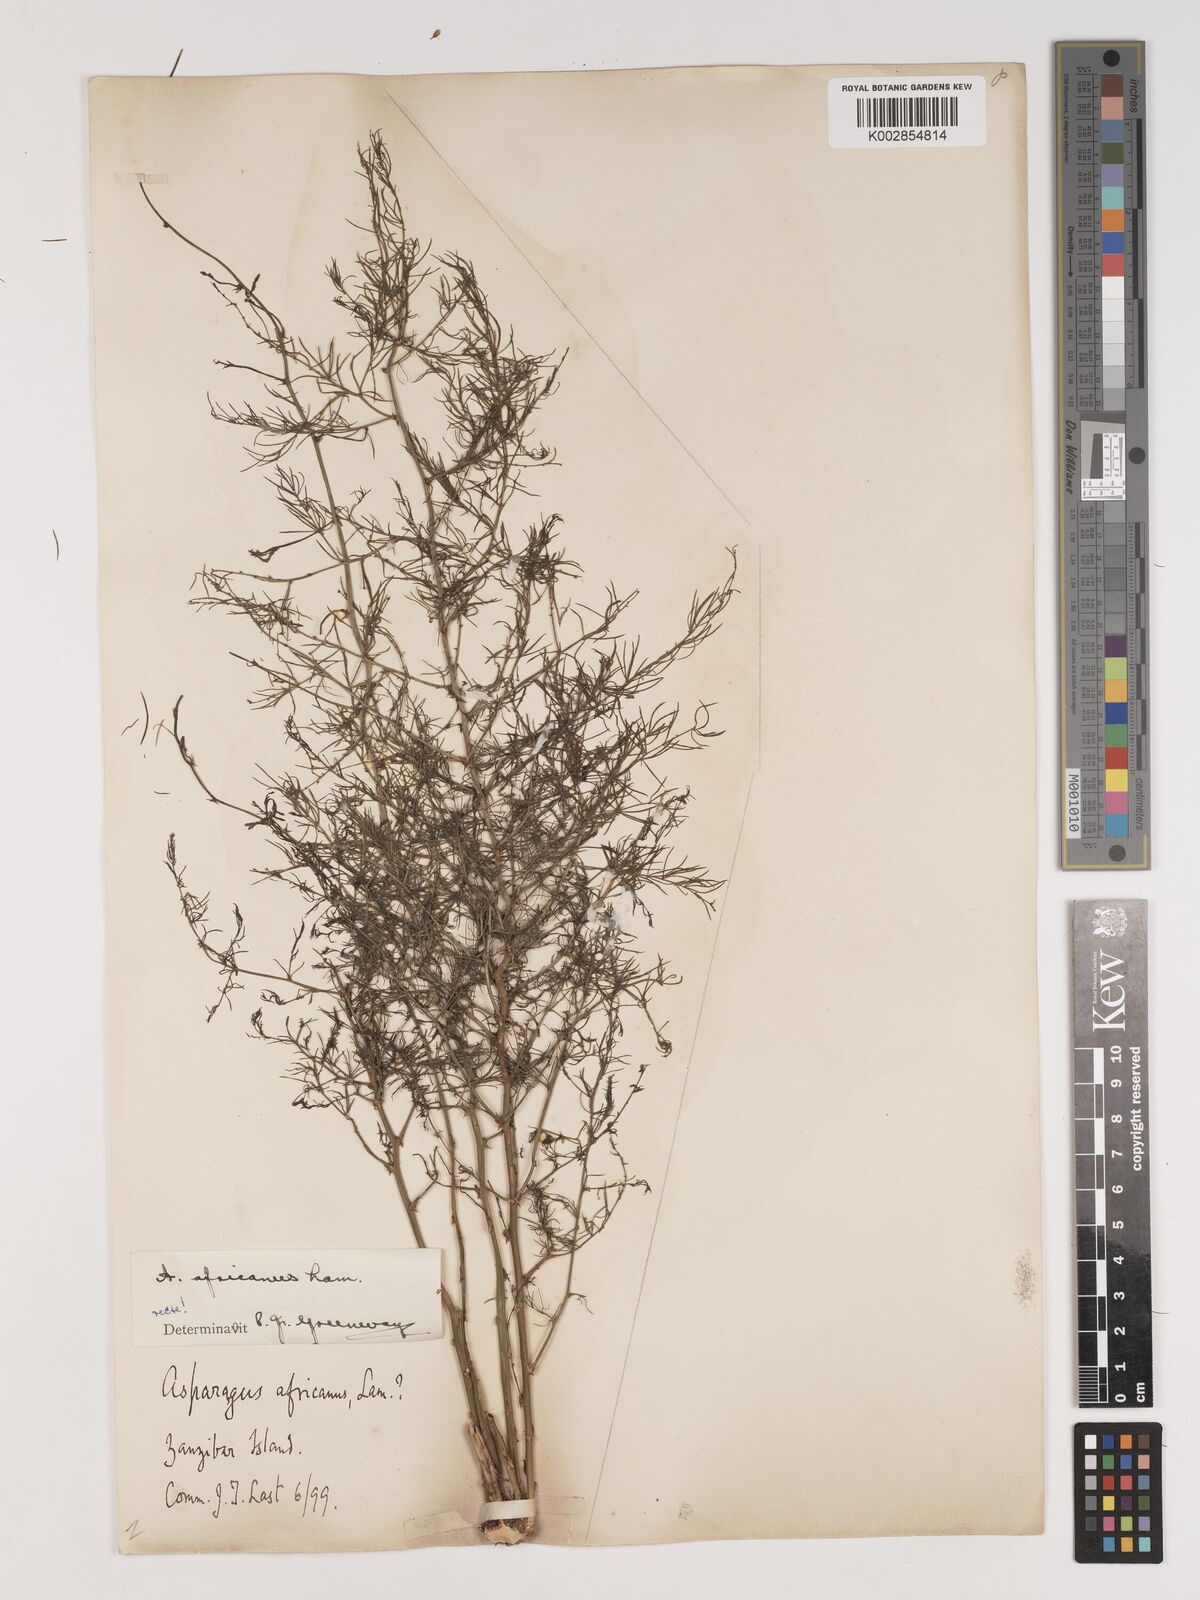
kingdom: Plantae
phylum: Tracheophyta
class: Liliopsida
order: Asparagales
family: Asparagaceae
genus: Asparagus
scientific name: Asparagus africanus
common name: Asparagus-fern
